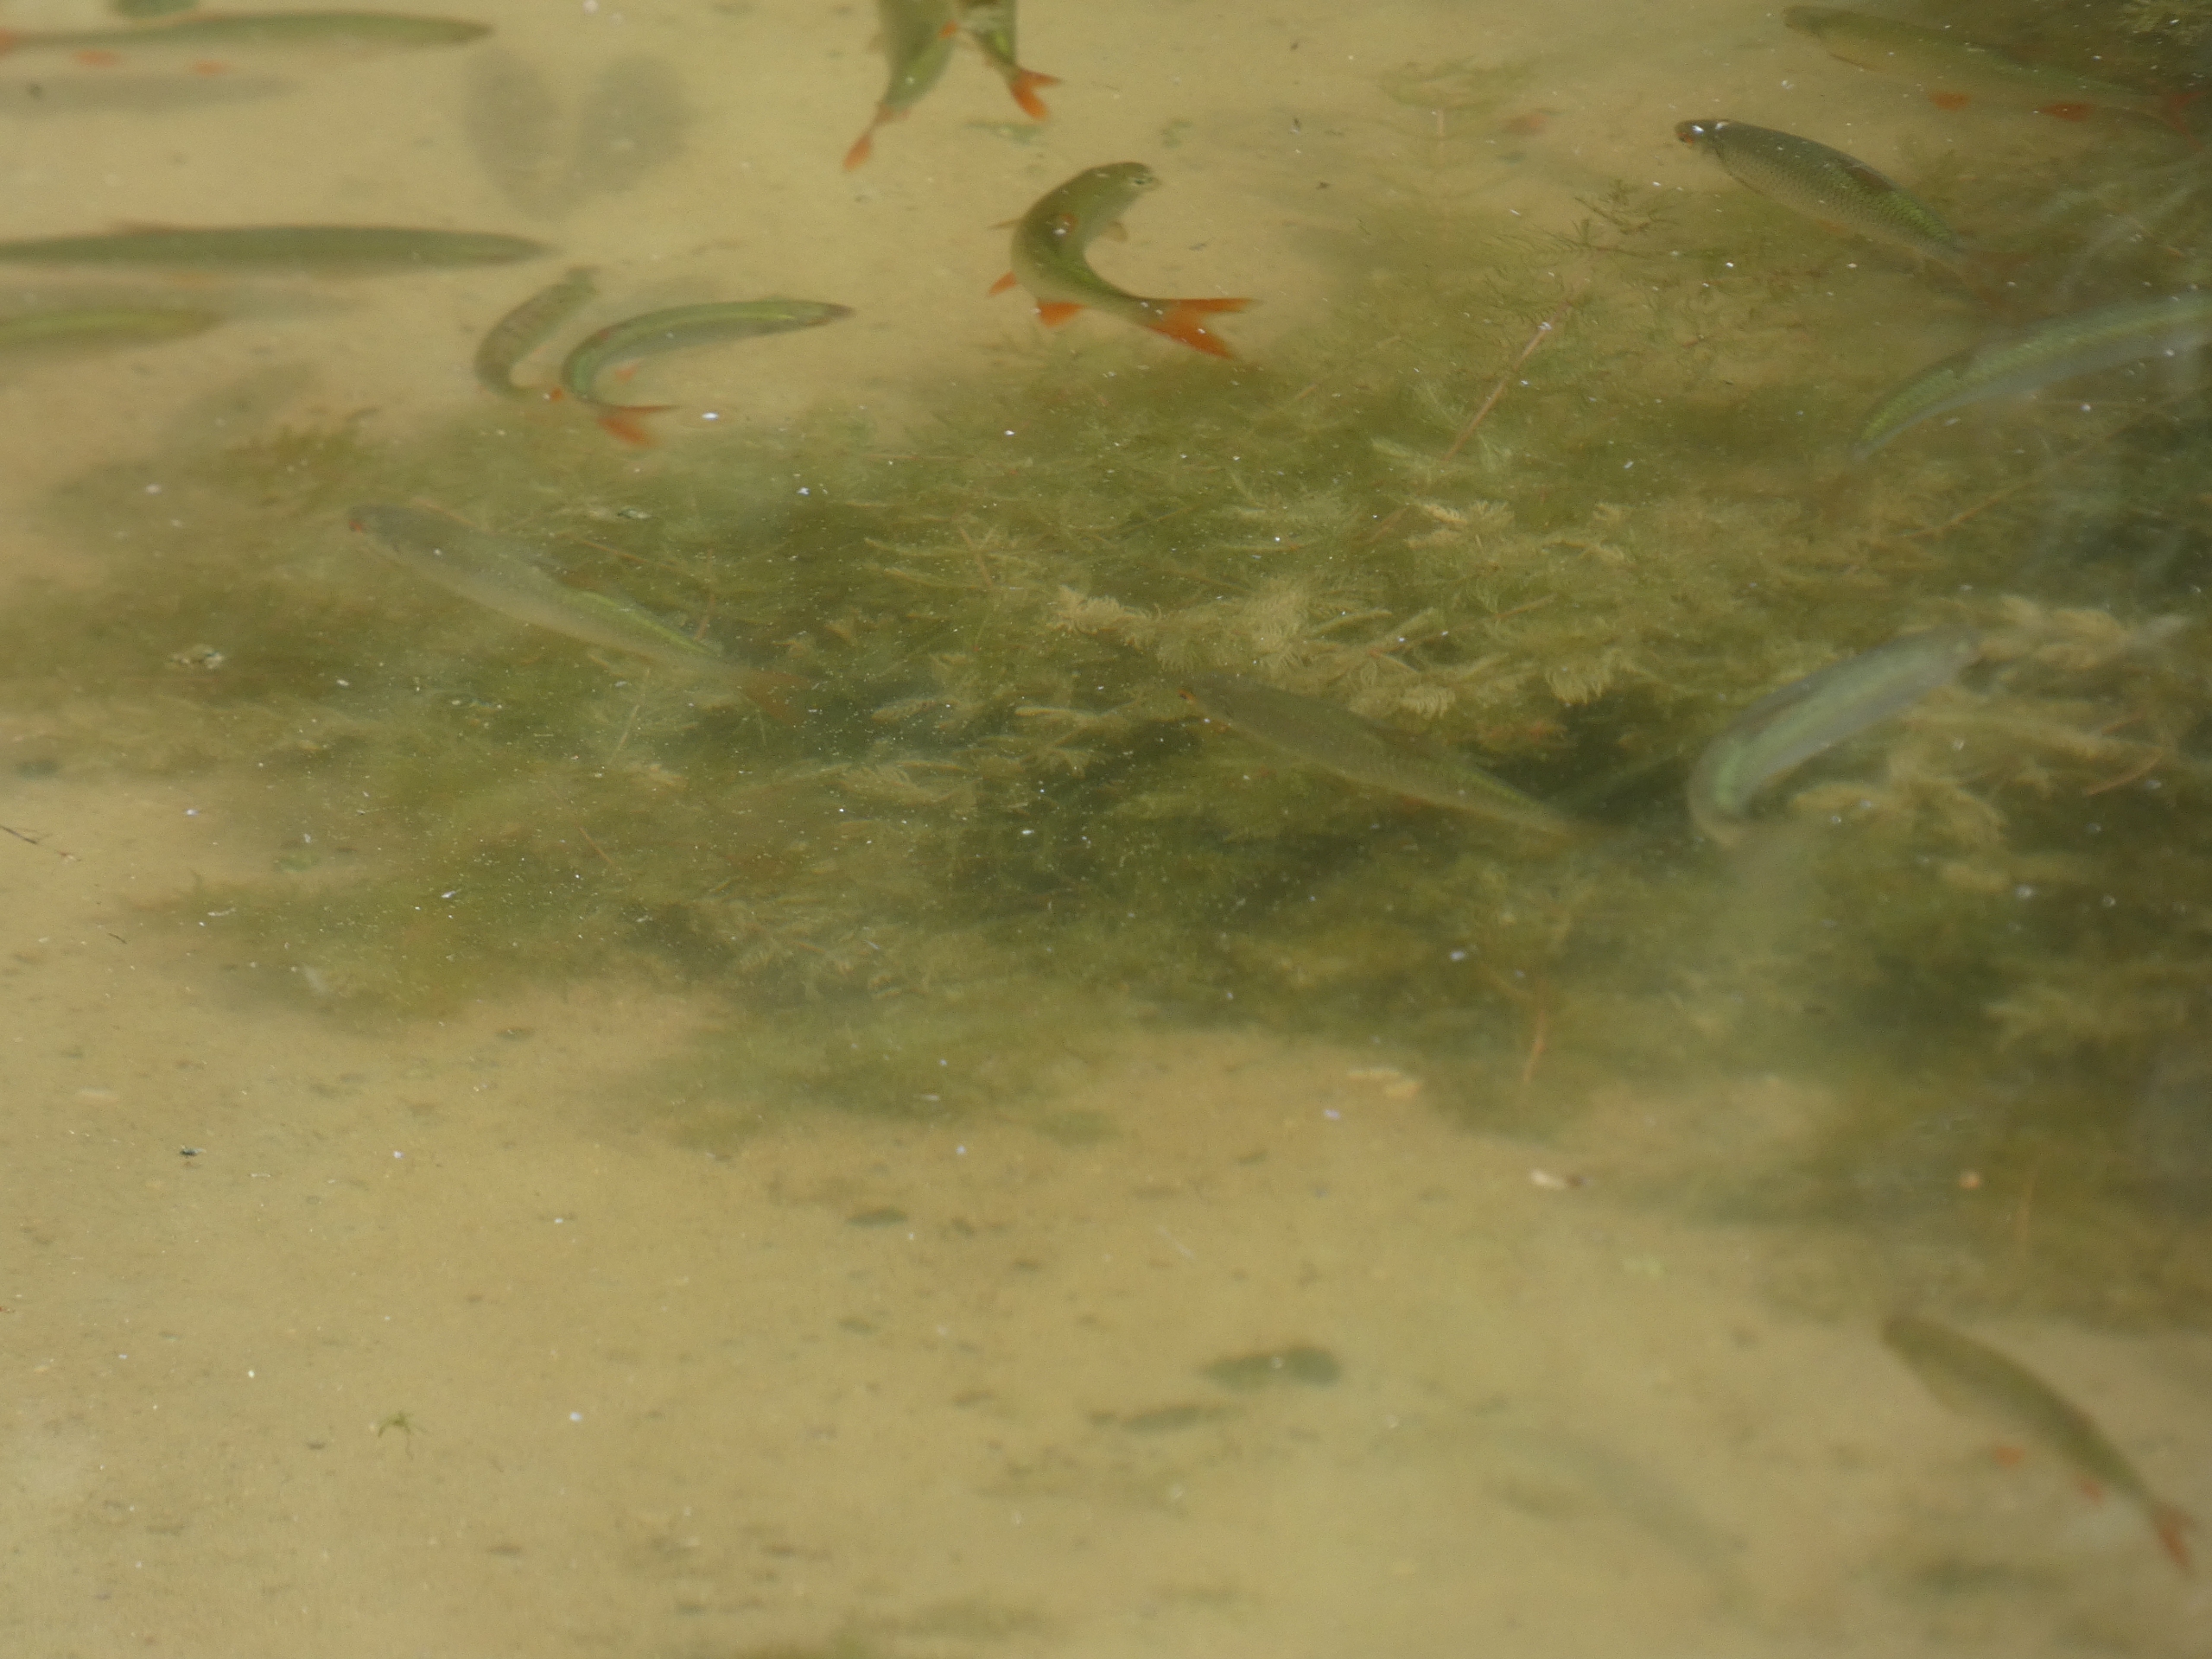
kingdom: Animalia
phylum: Chordata
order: Cypriniformes
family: Cyprinidae
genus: Rutilus
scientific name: Rutilus rutilus
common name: Skalle
